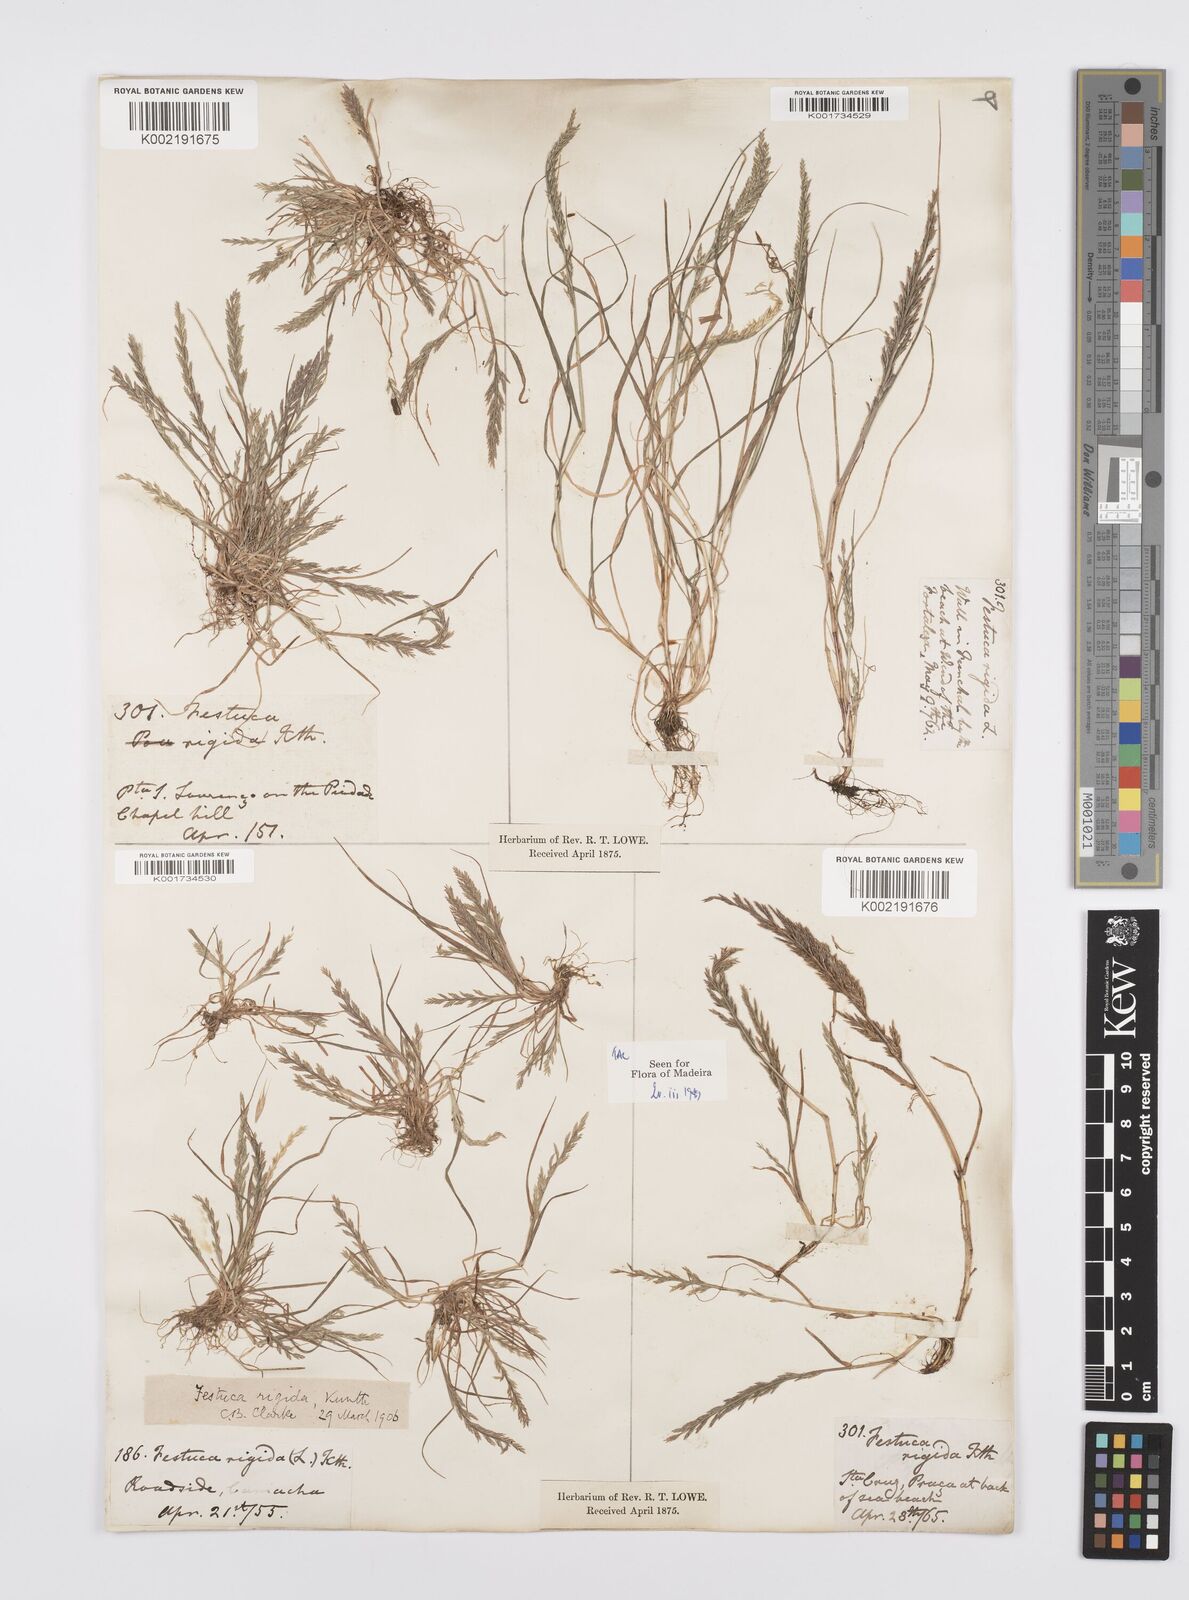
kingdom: Plantae
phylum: Tracheophyta
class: Liliopsida
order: Poales
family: Poaceae
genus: Catapodium
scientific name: Catapodium rigidum
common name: Fern-grass
